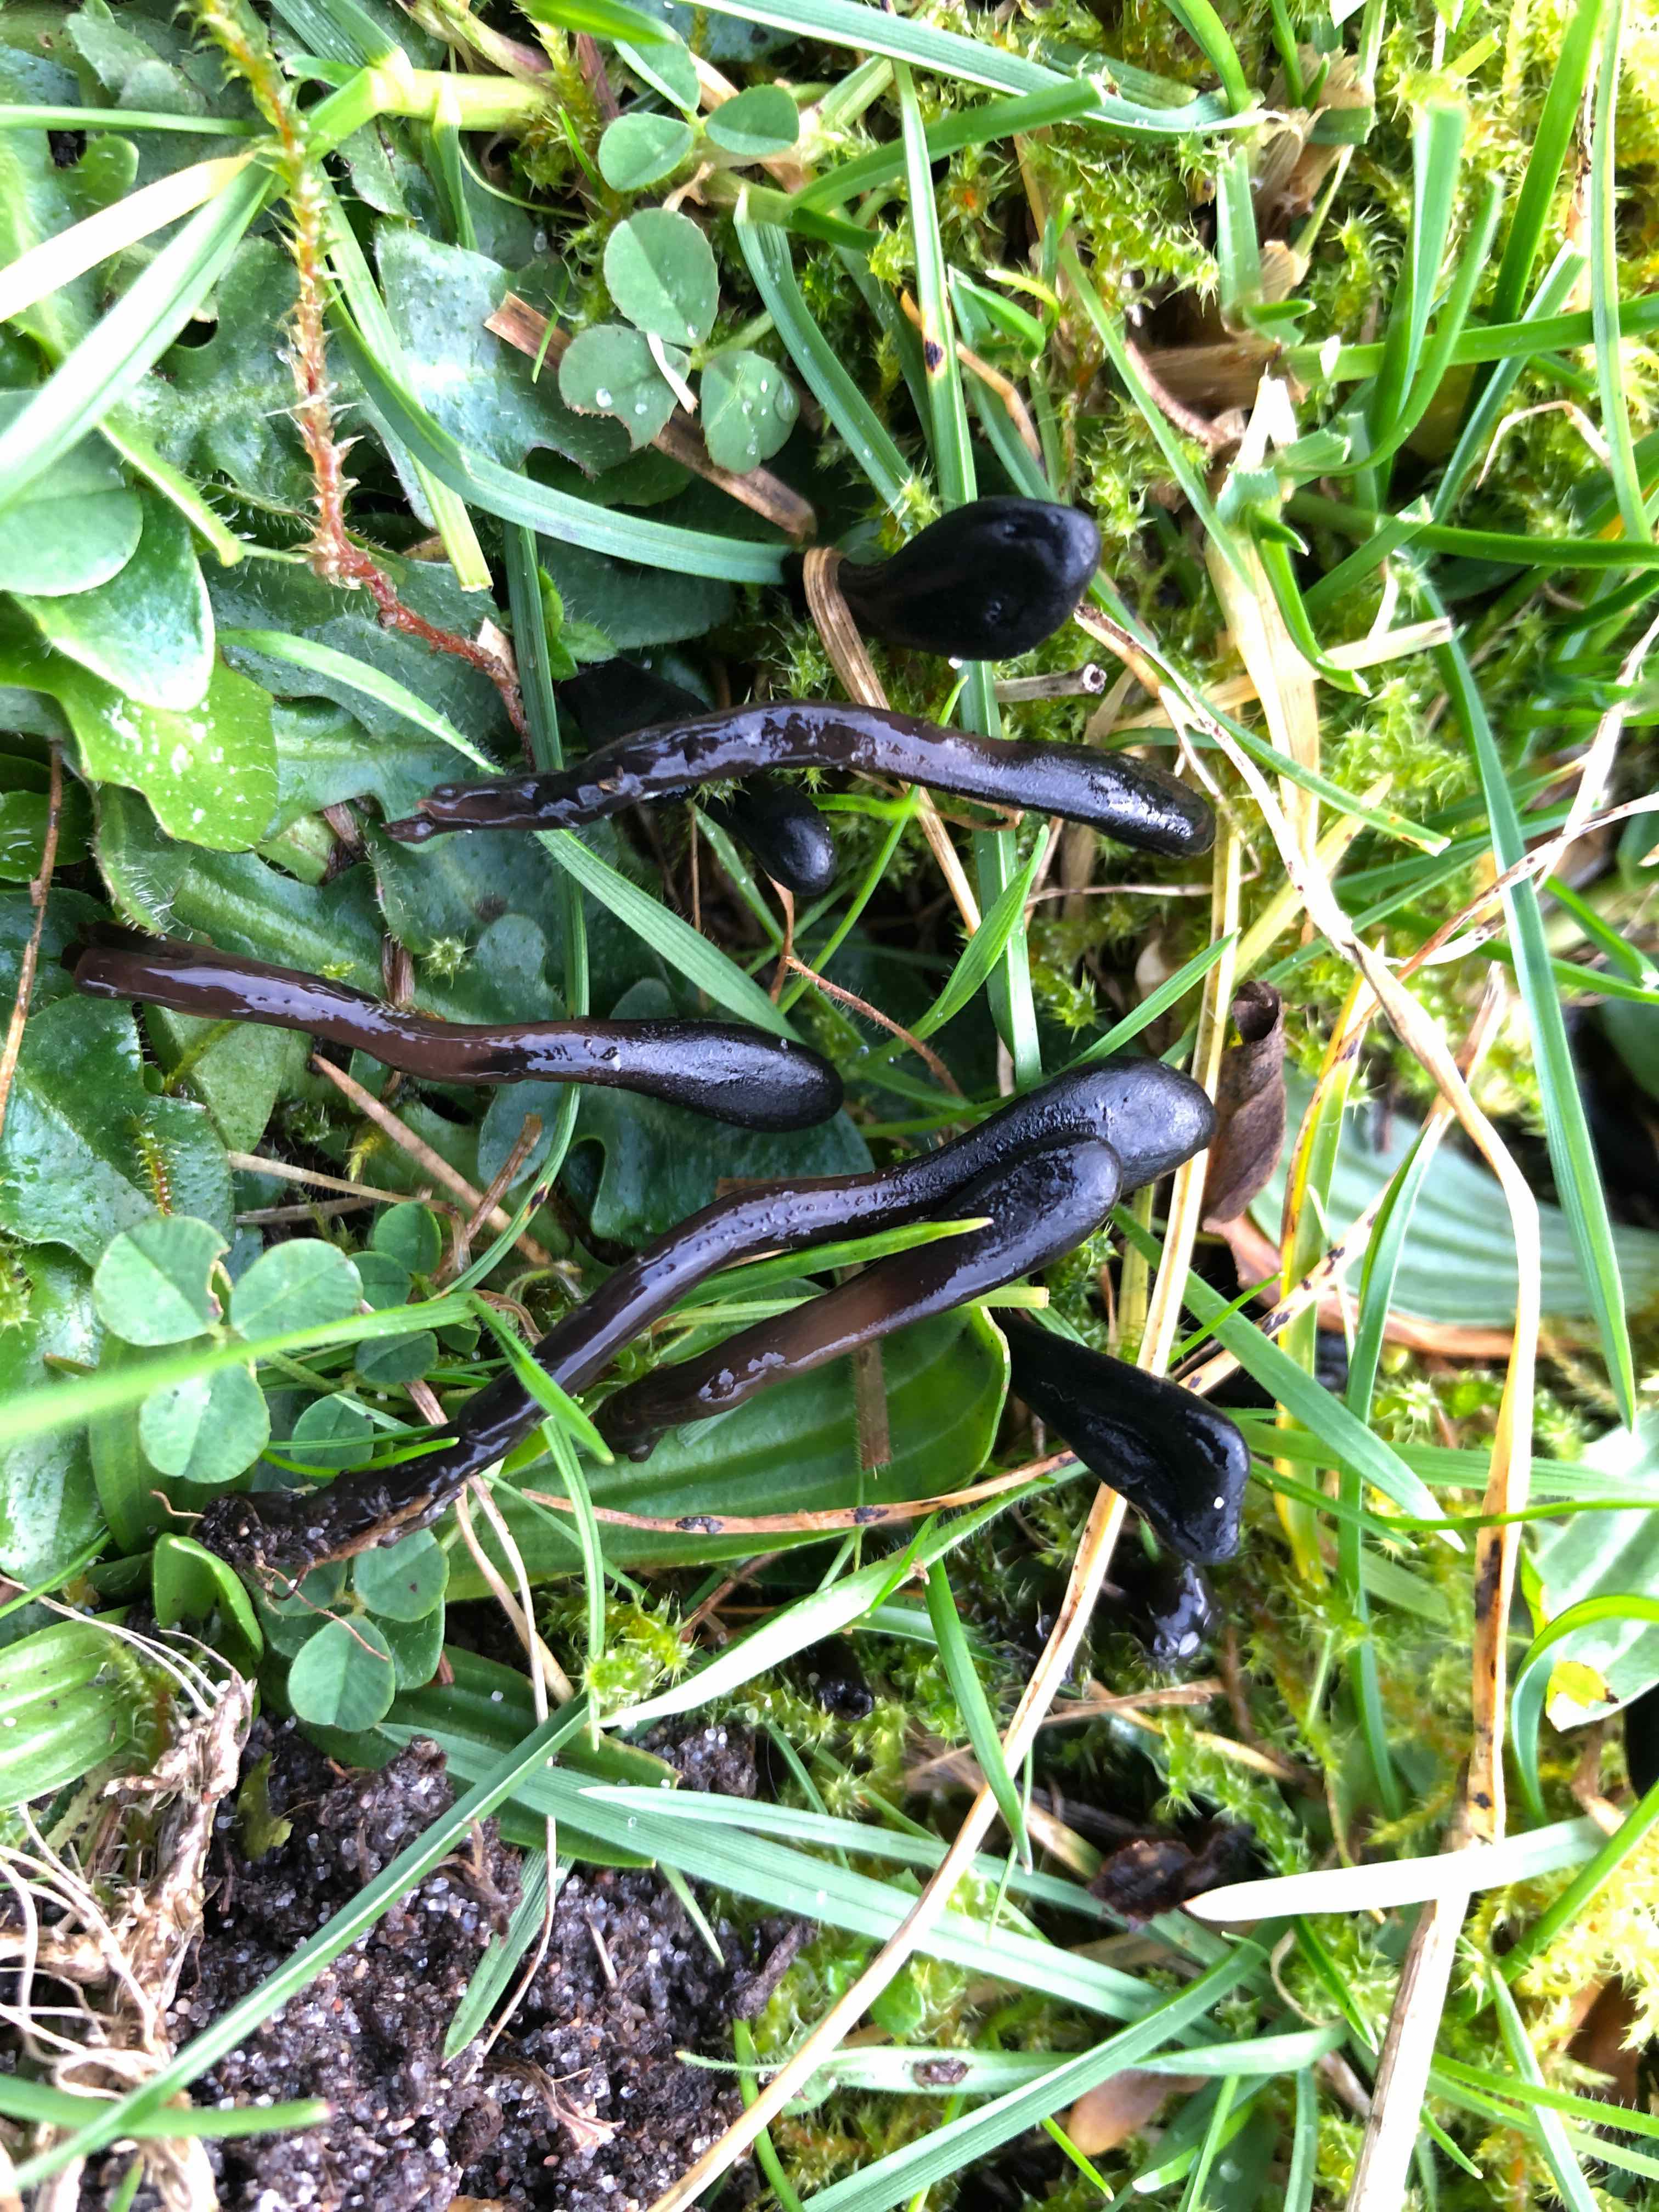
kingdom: Fungi
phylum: Ascomycota
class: Geoglossomycetes
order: Geoglossales
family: Geoglossaceae
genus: Glutinoglossum
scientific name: Glutinoglossum glutinosum
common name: slimet jordtunge
